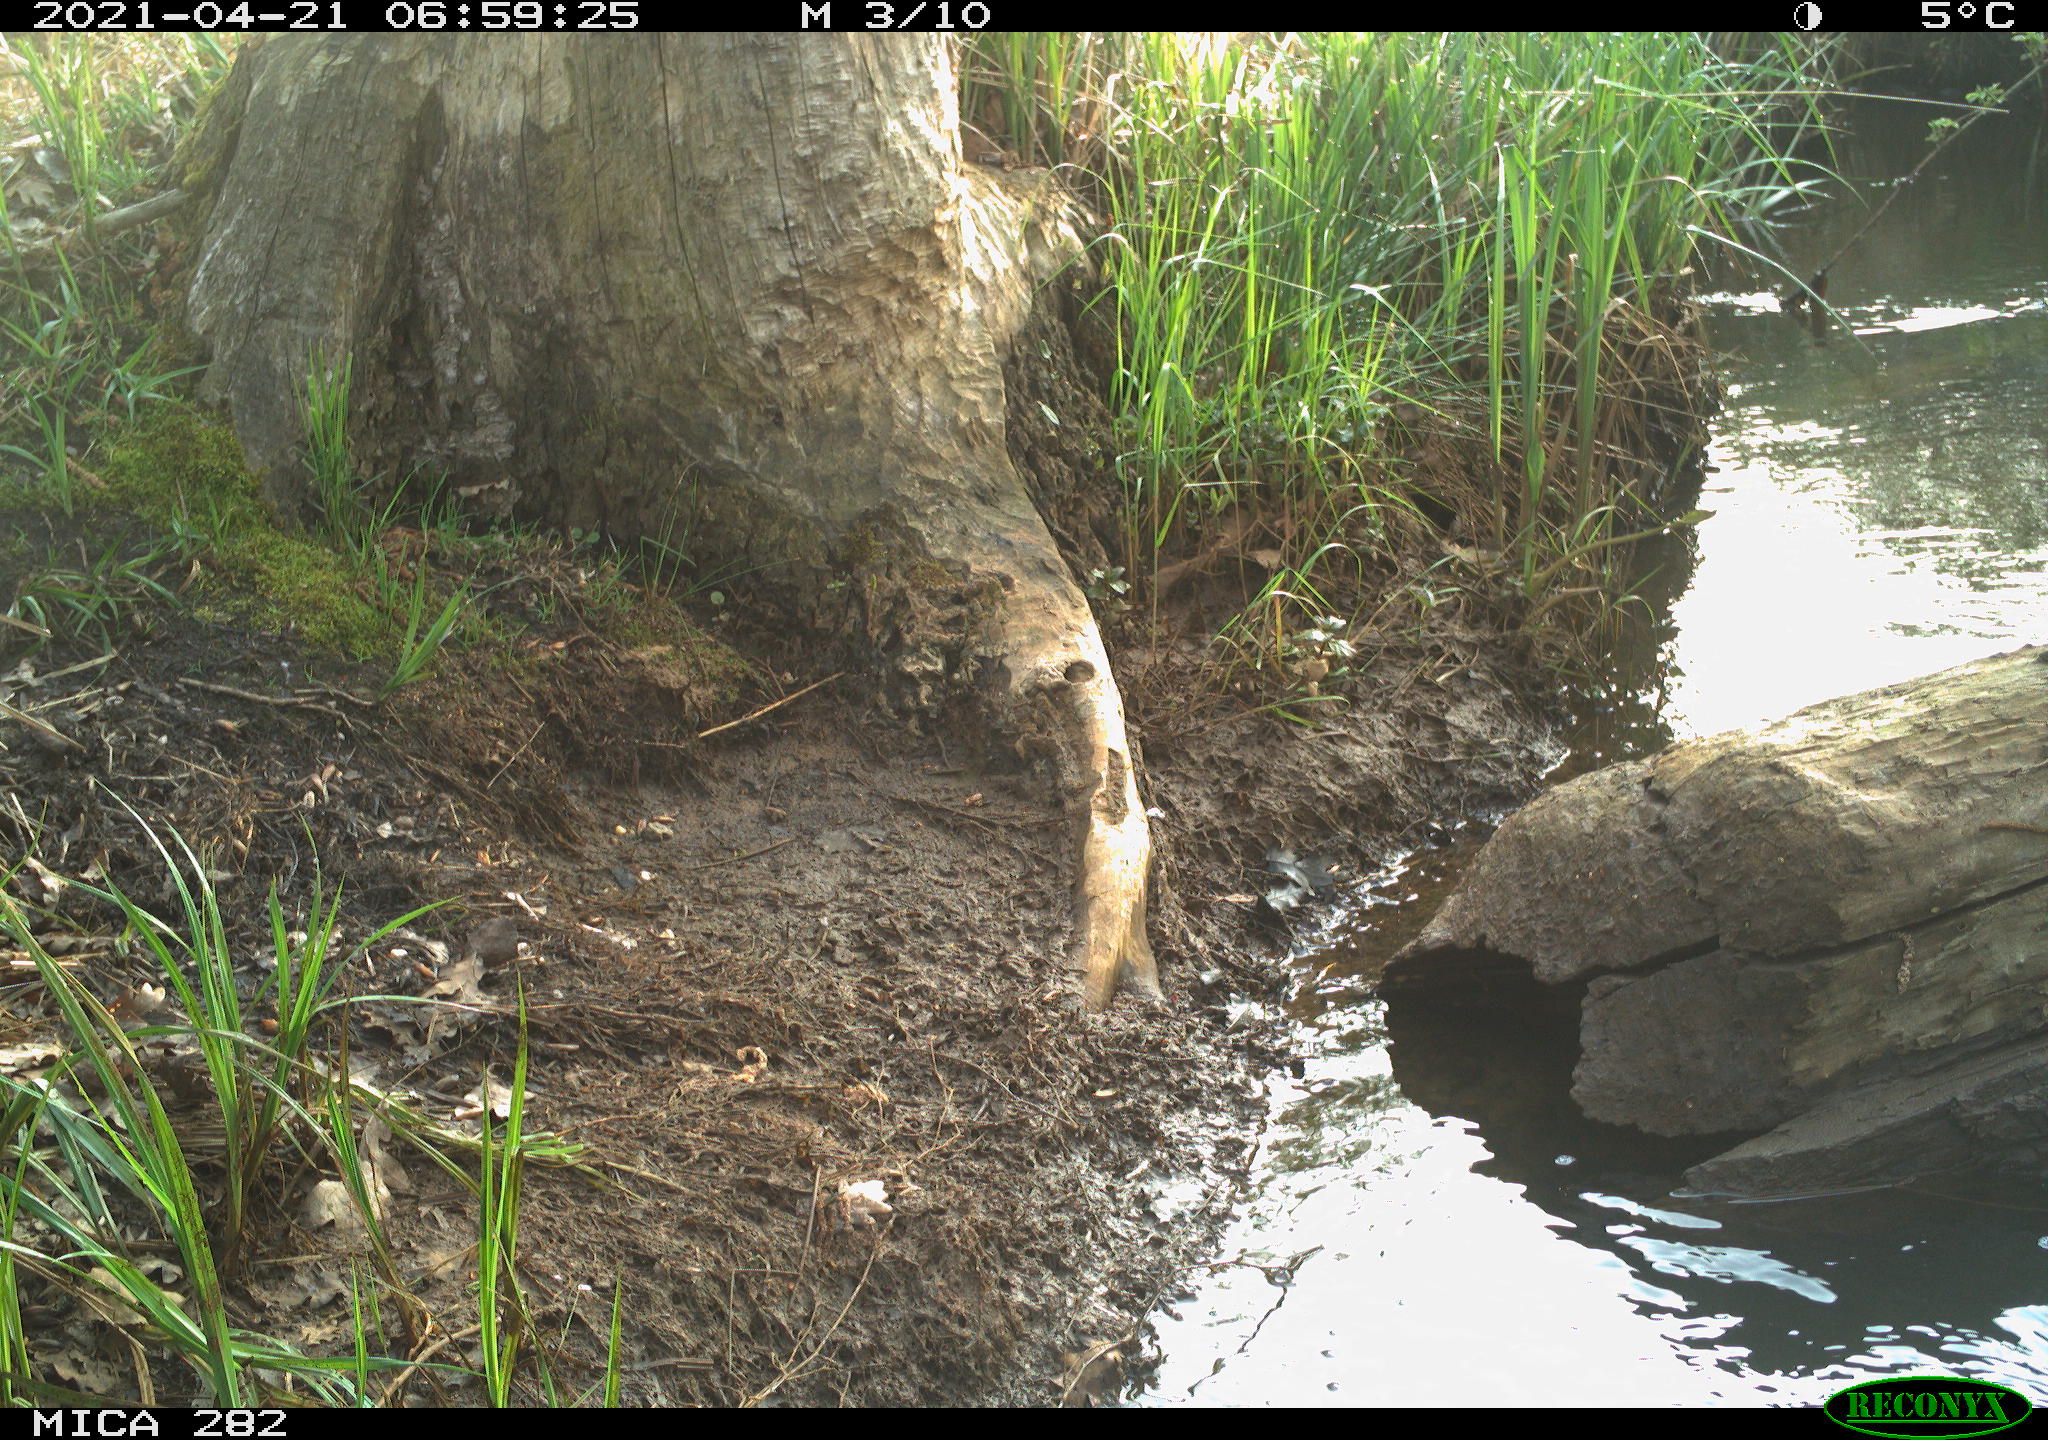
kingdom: Animalia
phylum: Chordata
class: Aves
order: Anseriformes
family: Anatidae
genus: Anas
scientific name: Anas platyrhynchos
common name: Mallard
